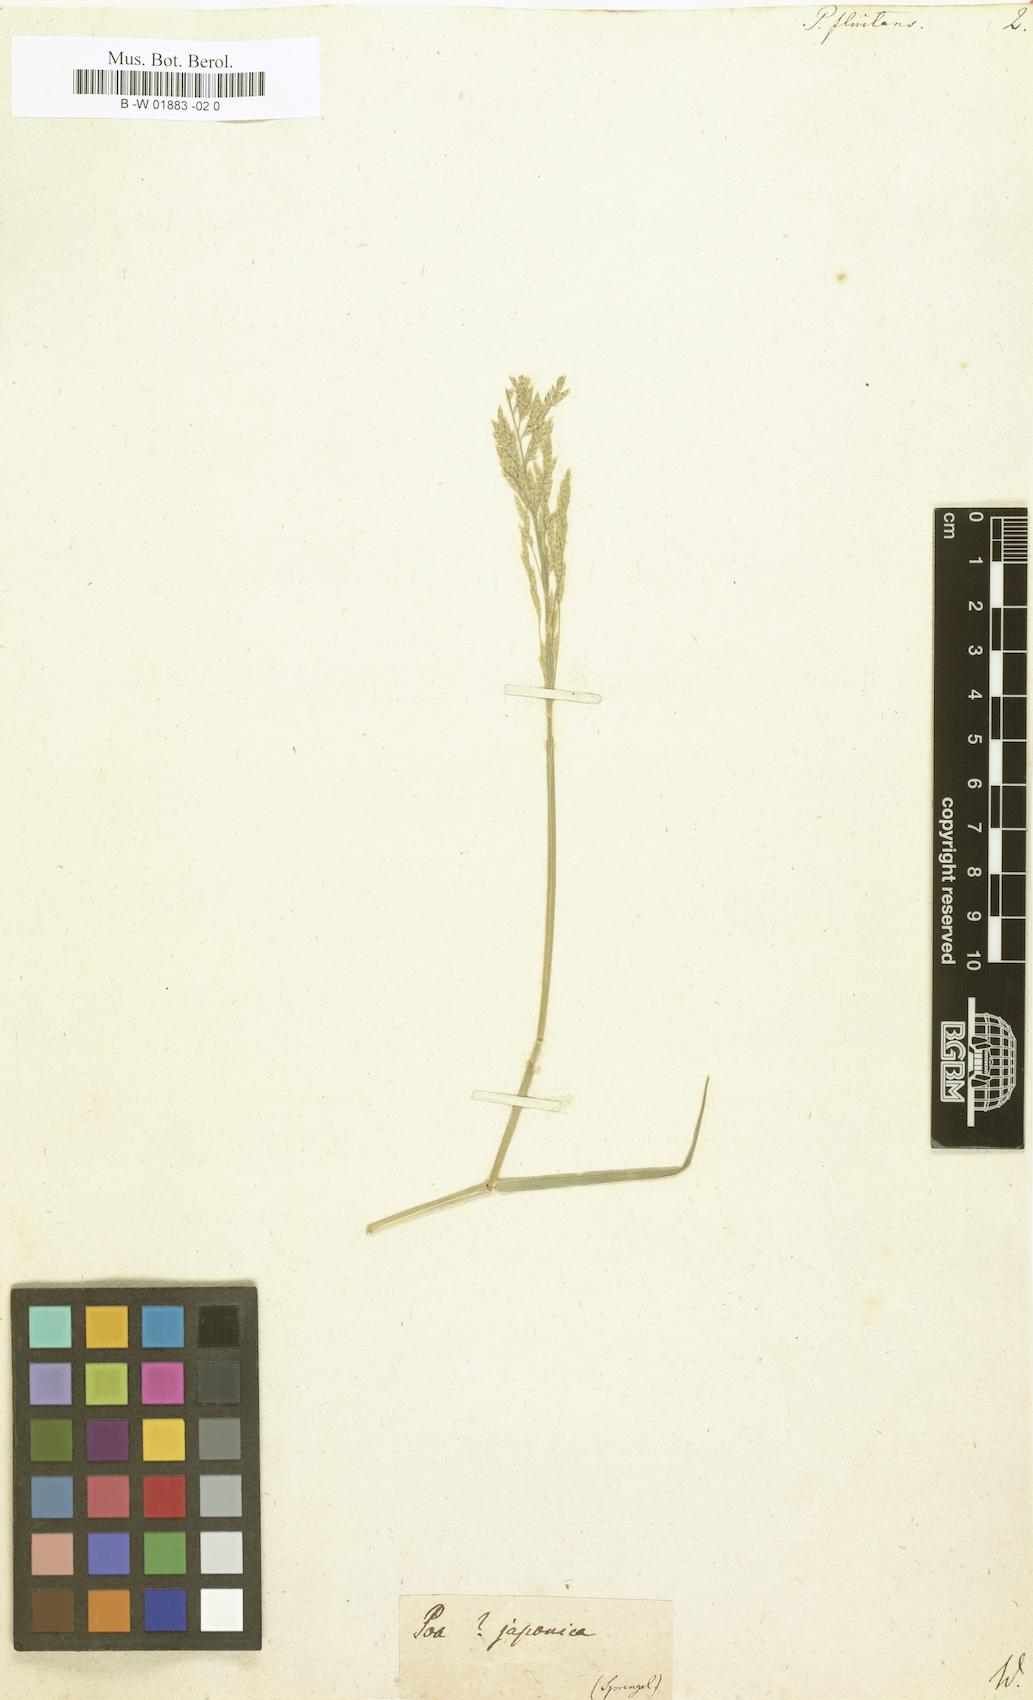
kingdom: Plantae
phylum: Tracheophyta
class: Liliopsida
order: Poales
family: Poaceae
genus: Glyceria
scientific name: Glyceria fluitans
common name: Floating sweet-grass
